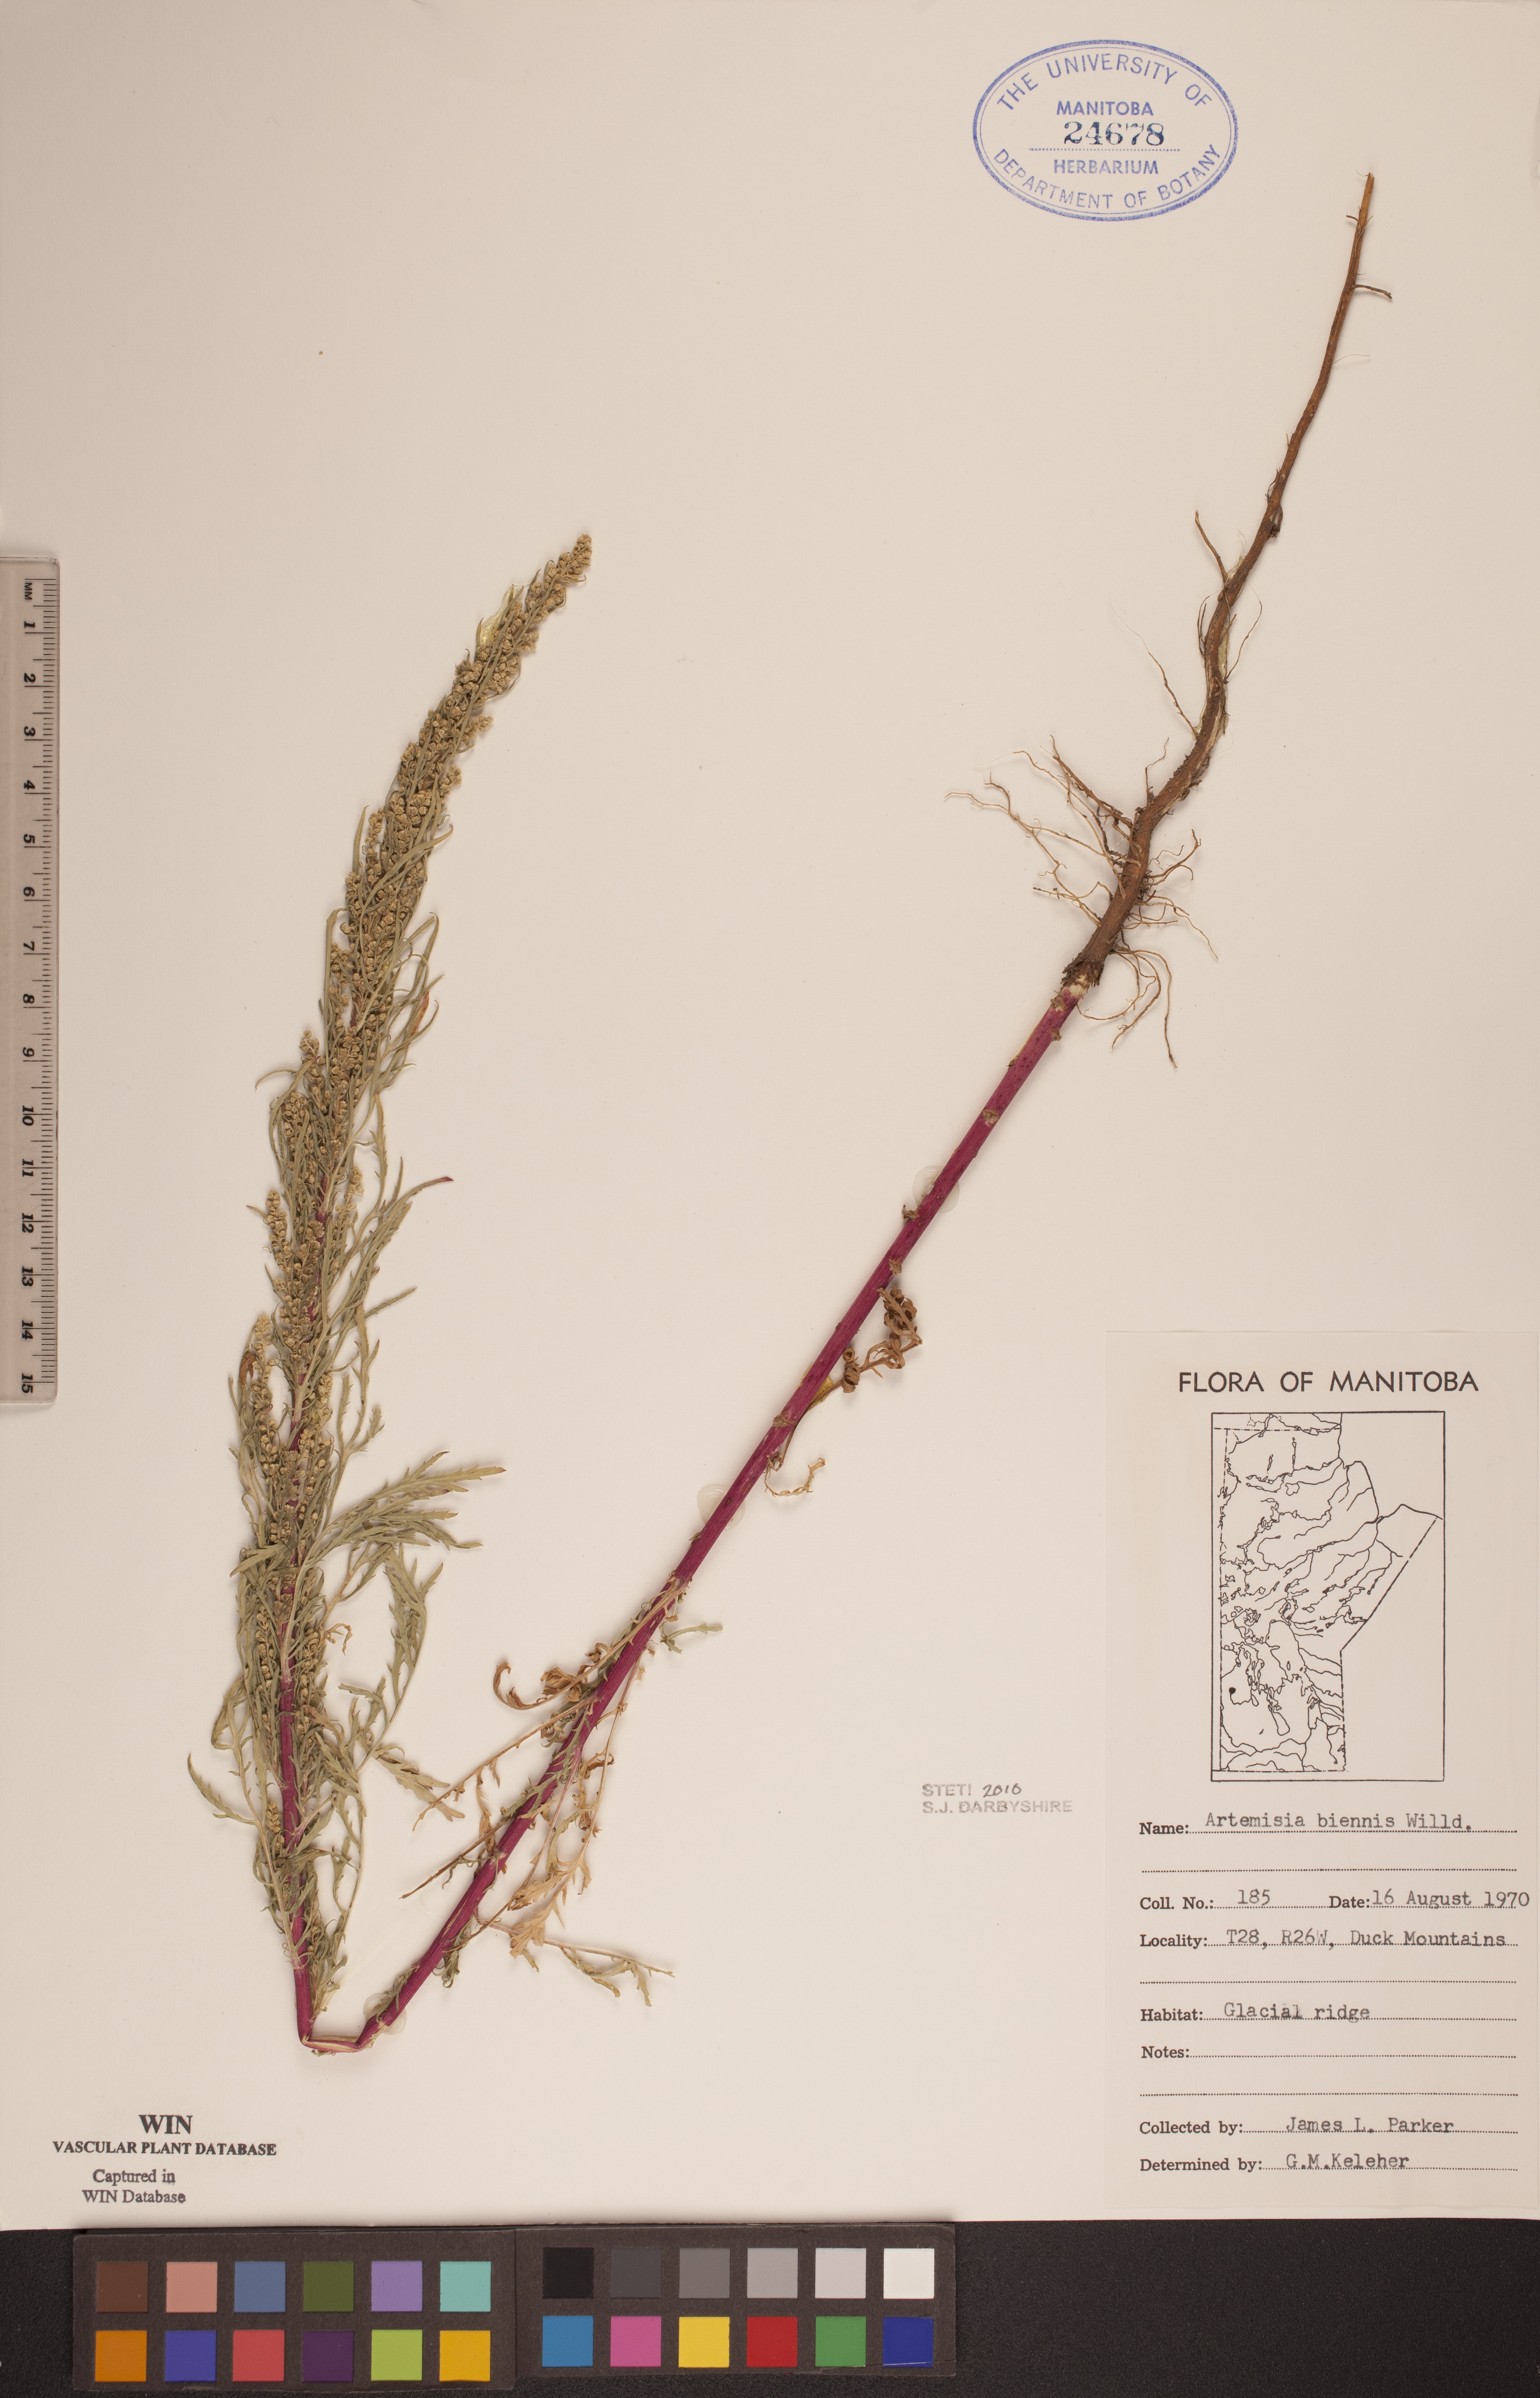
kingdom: Plantae
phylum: Tracheophyta
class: Magnoliopsida
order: Asterales
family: Asteraceae
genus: Artemisia
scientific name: Artemisia biennis
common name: Biennial wormwood
